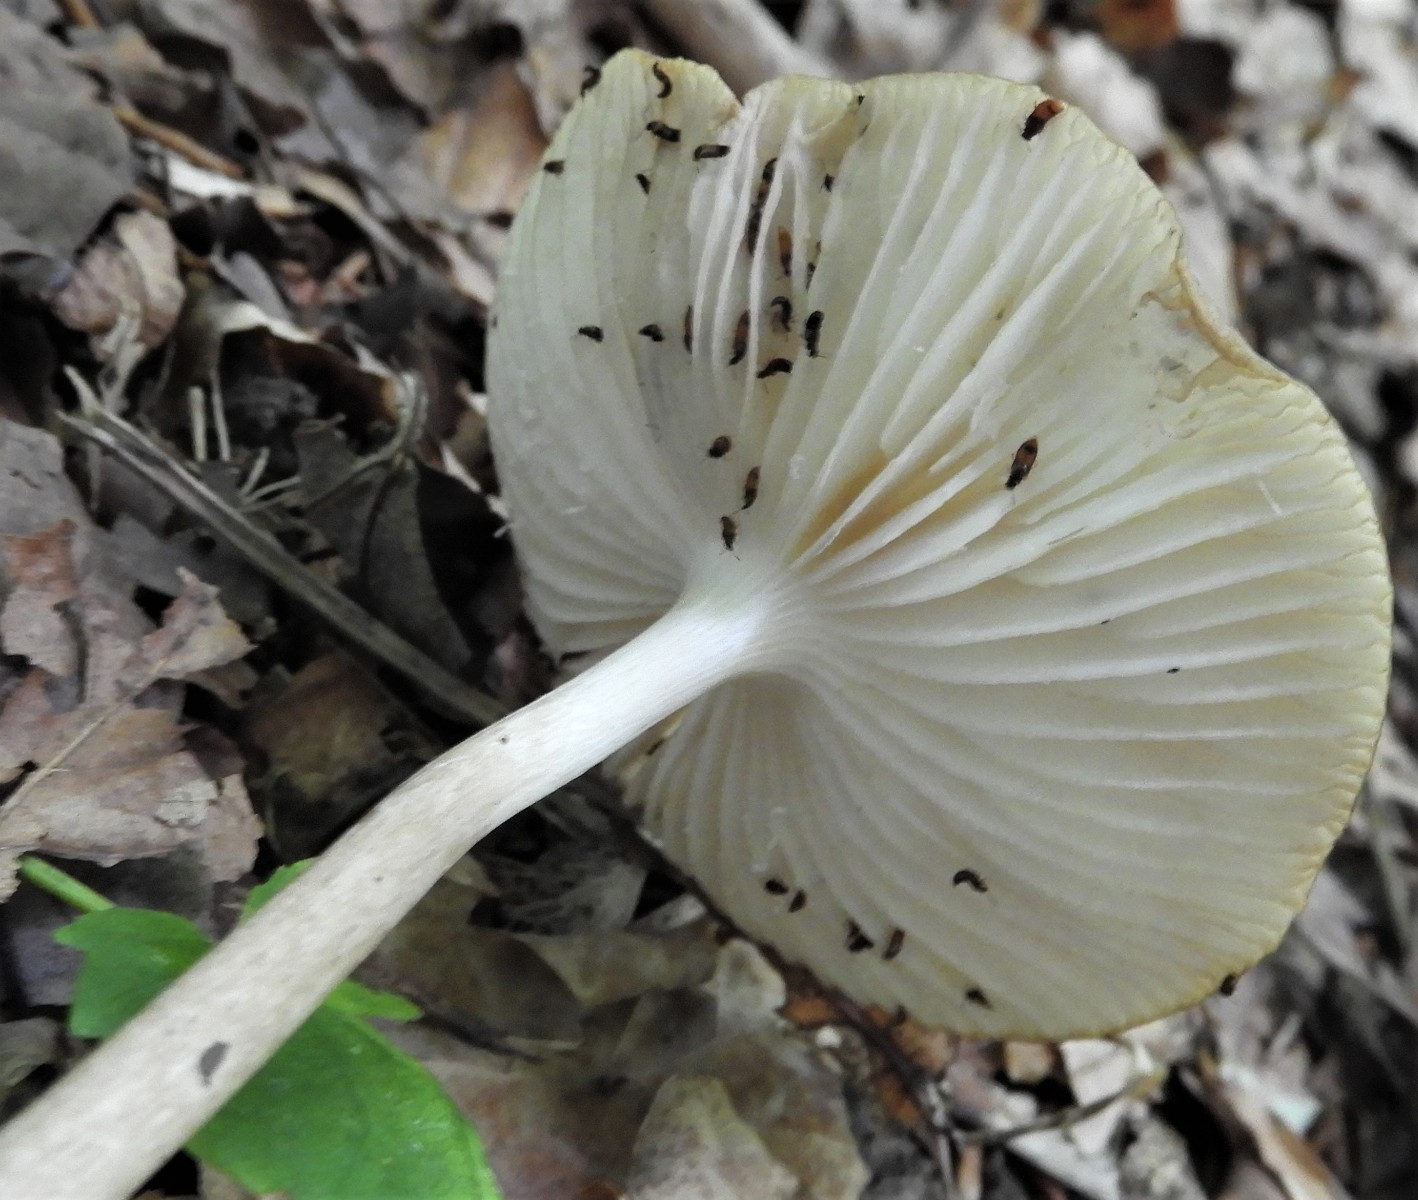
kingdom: Fungi
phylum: Basidiomycota
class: Agaricomycetes
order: Agaricales
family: Physalacriaceae
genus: Hymenopellis
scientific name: Hymenopellis radicata
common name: almindelig pælerodshat
